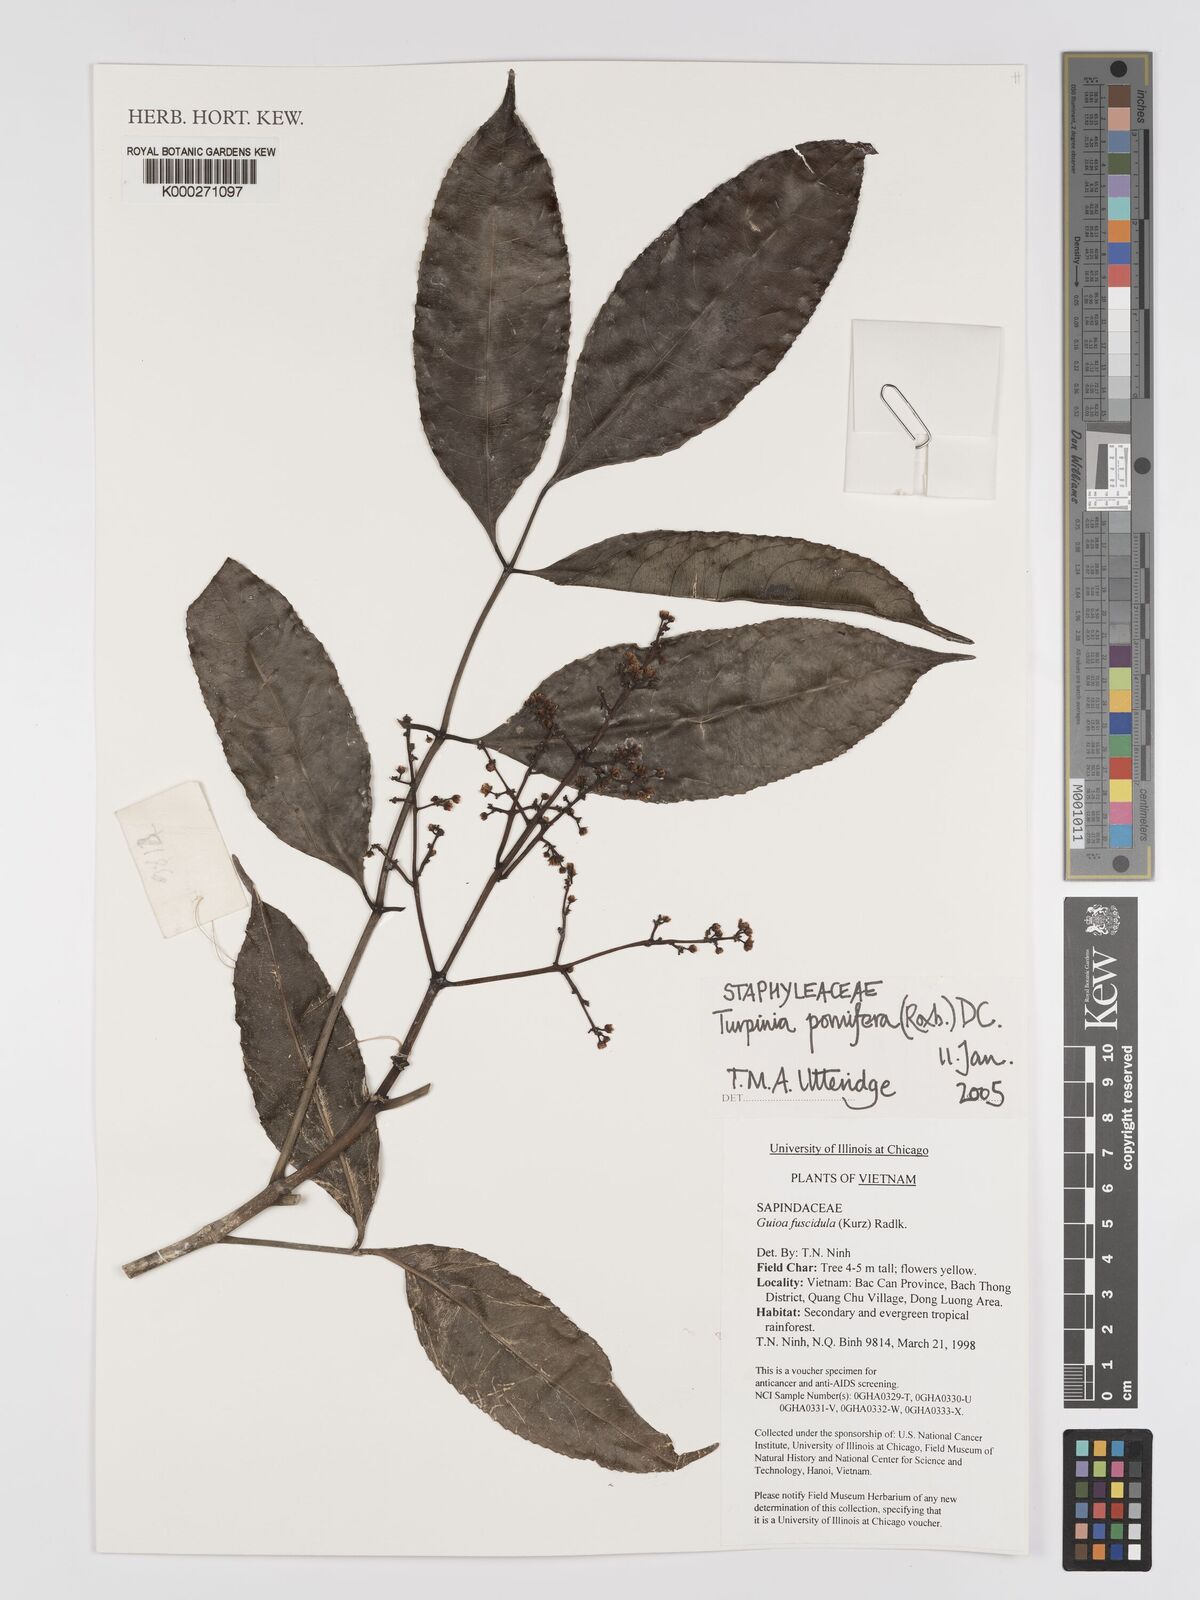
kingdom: Plantae
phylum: Tracheophyta
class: Magnoliopsida
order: Crossosomatales
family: Staphyleaceae
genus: Dalrympelea
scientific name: Dalrympelea pomifera
